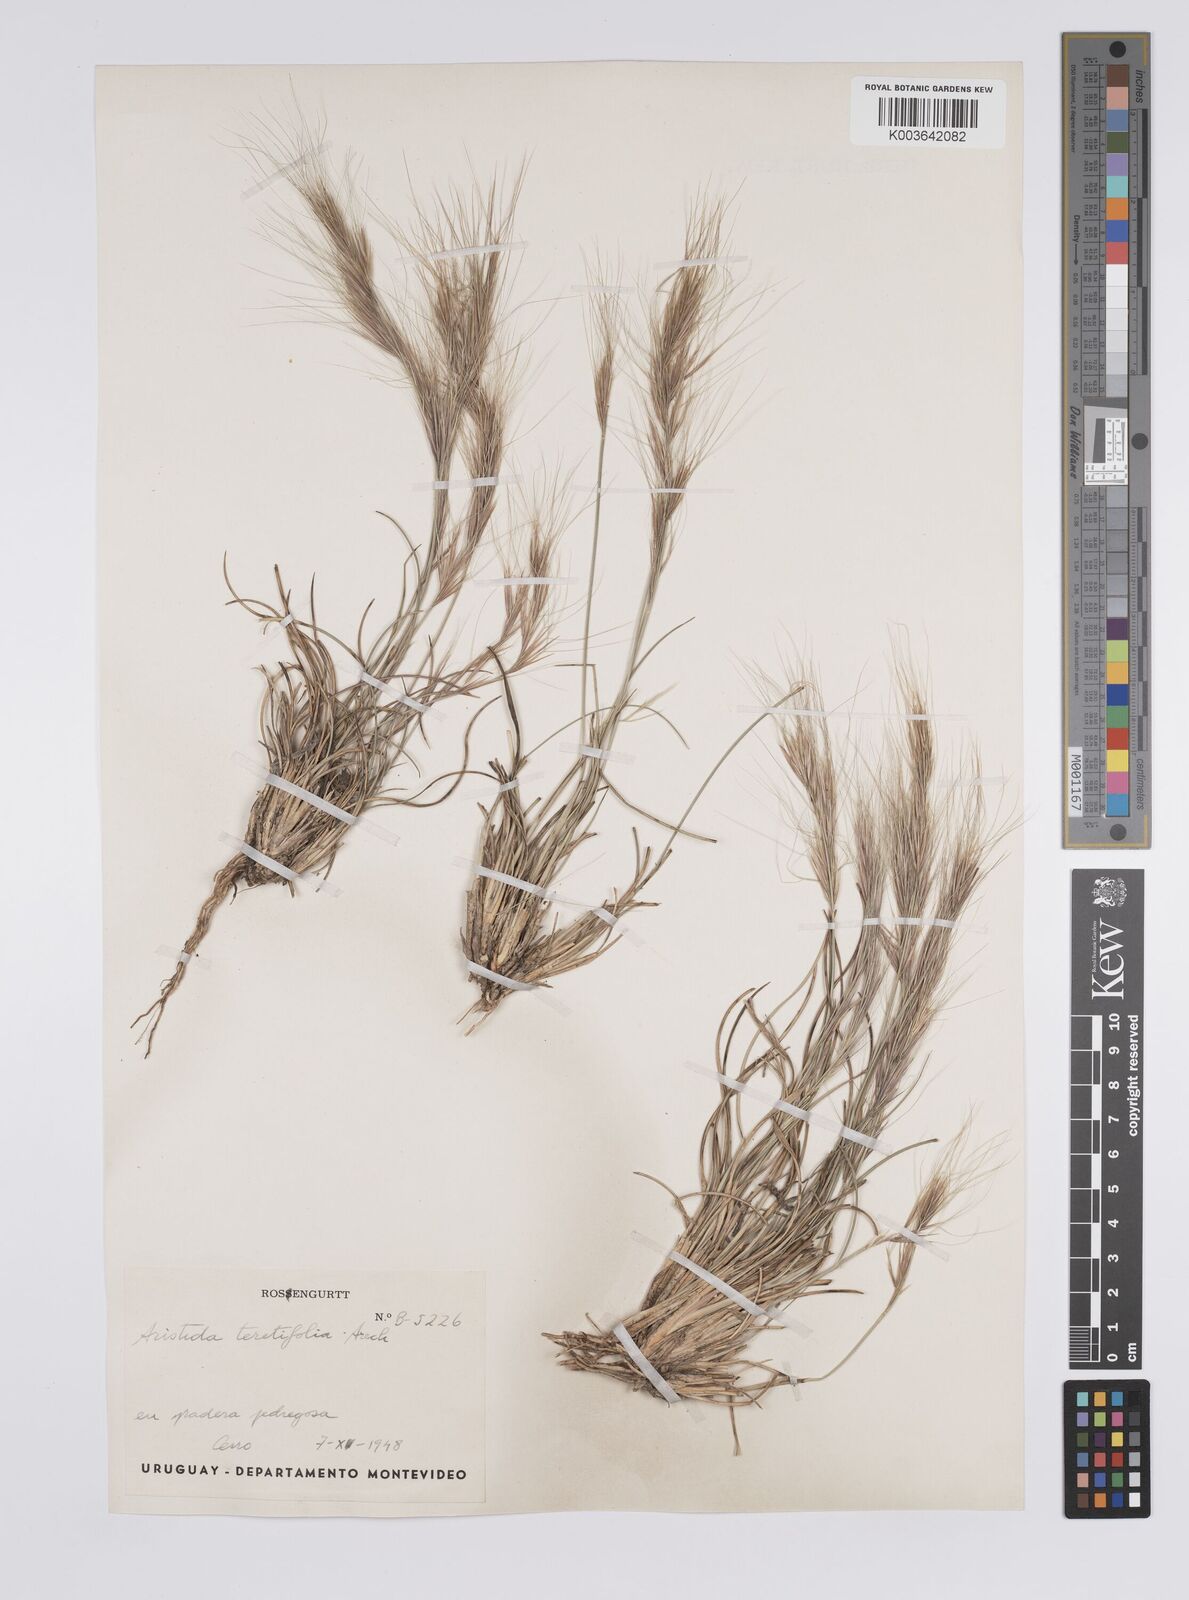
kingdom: Plantae
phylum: Tracheophyta
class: Liliopsida
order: Poales
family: Poaceae
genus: Aristida
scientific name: Aristida teretifolia
